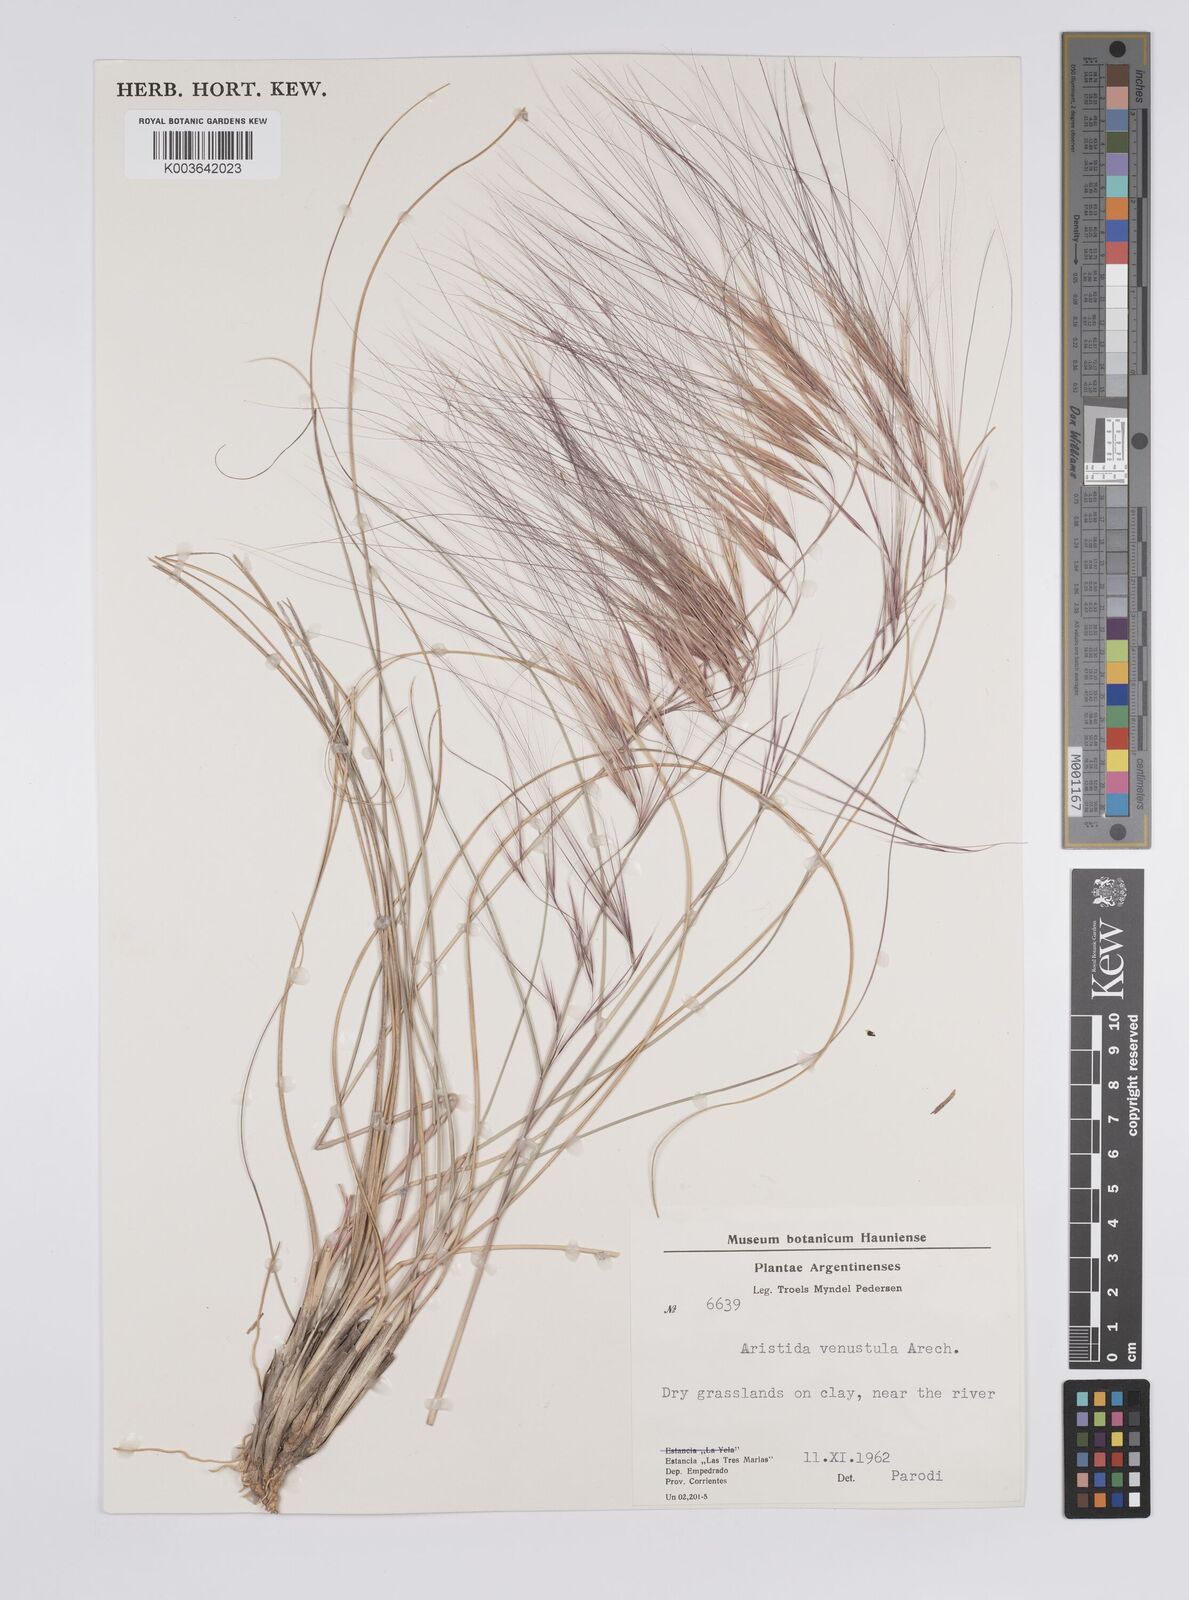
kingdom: Plantae
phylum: Tracheophyta
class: Liliopsida
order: Poales
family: Poaceae
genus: Aristida
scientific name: Aristida uruguayensis
